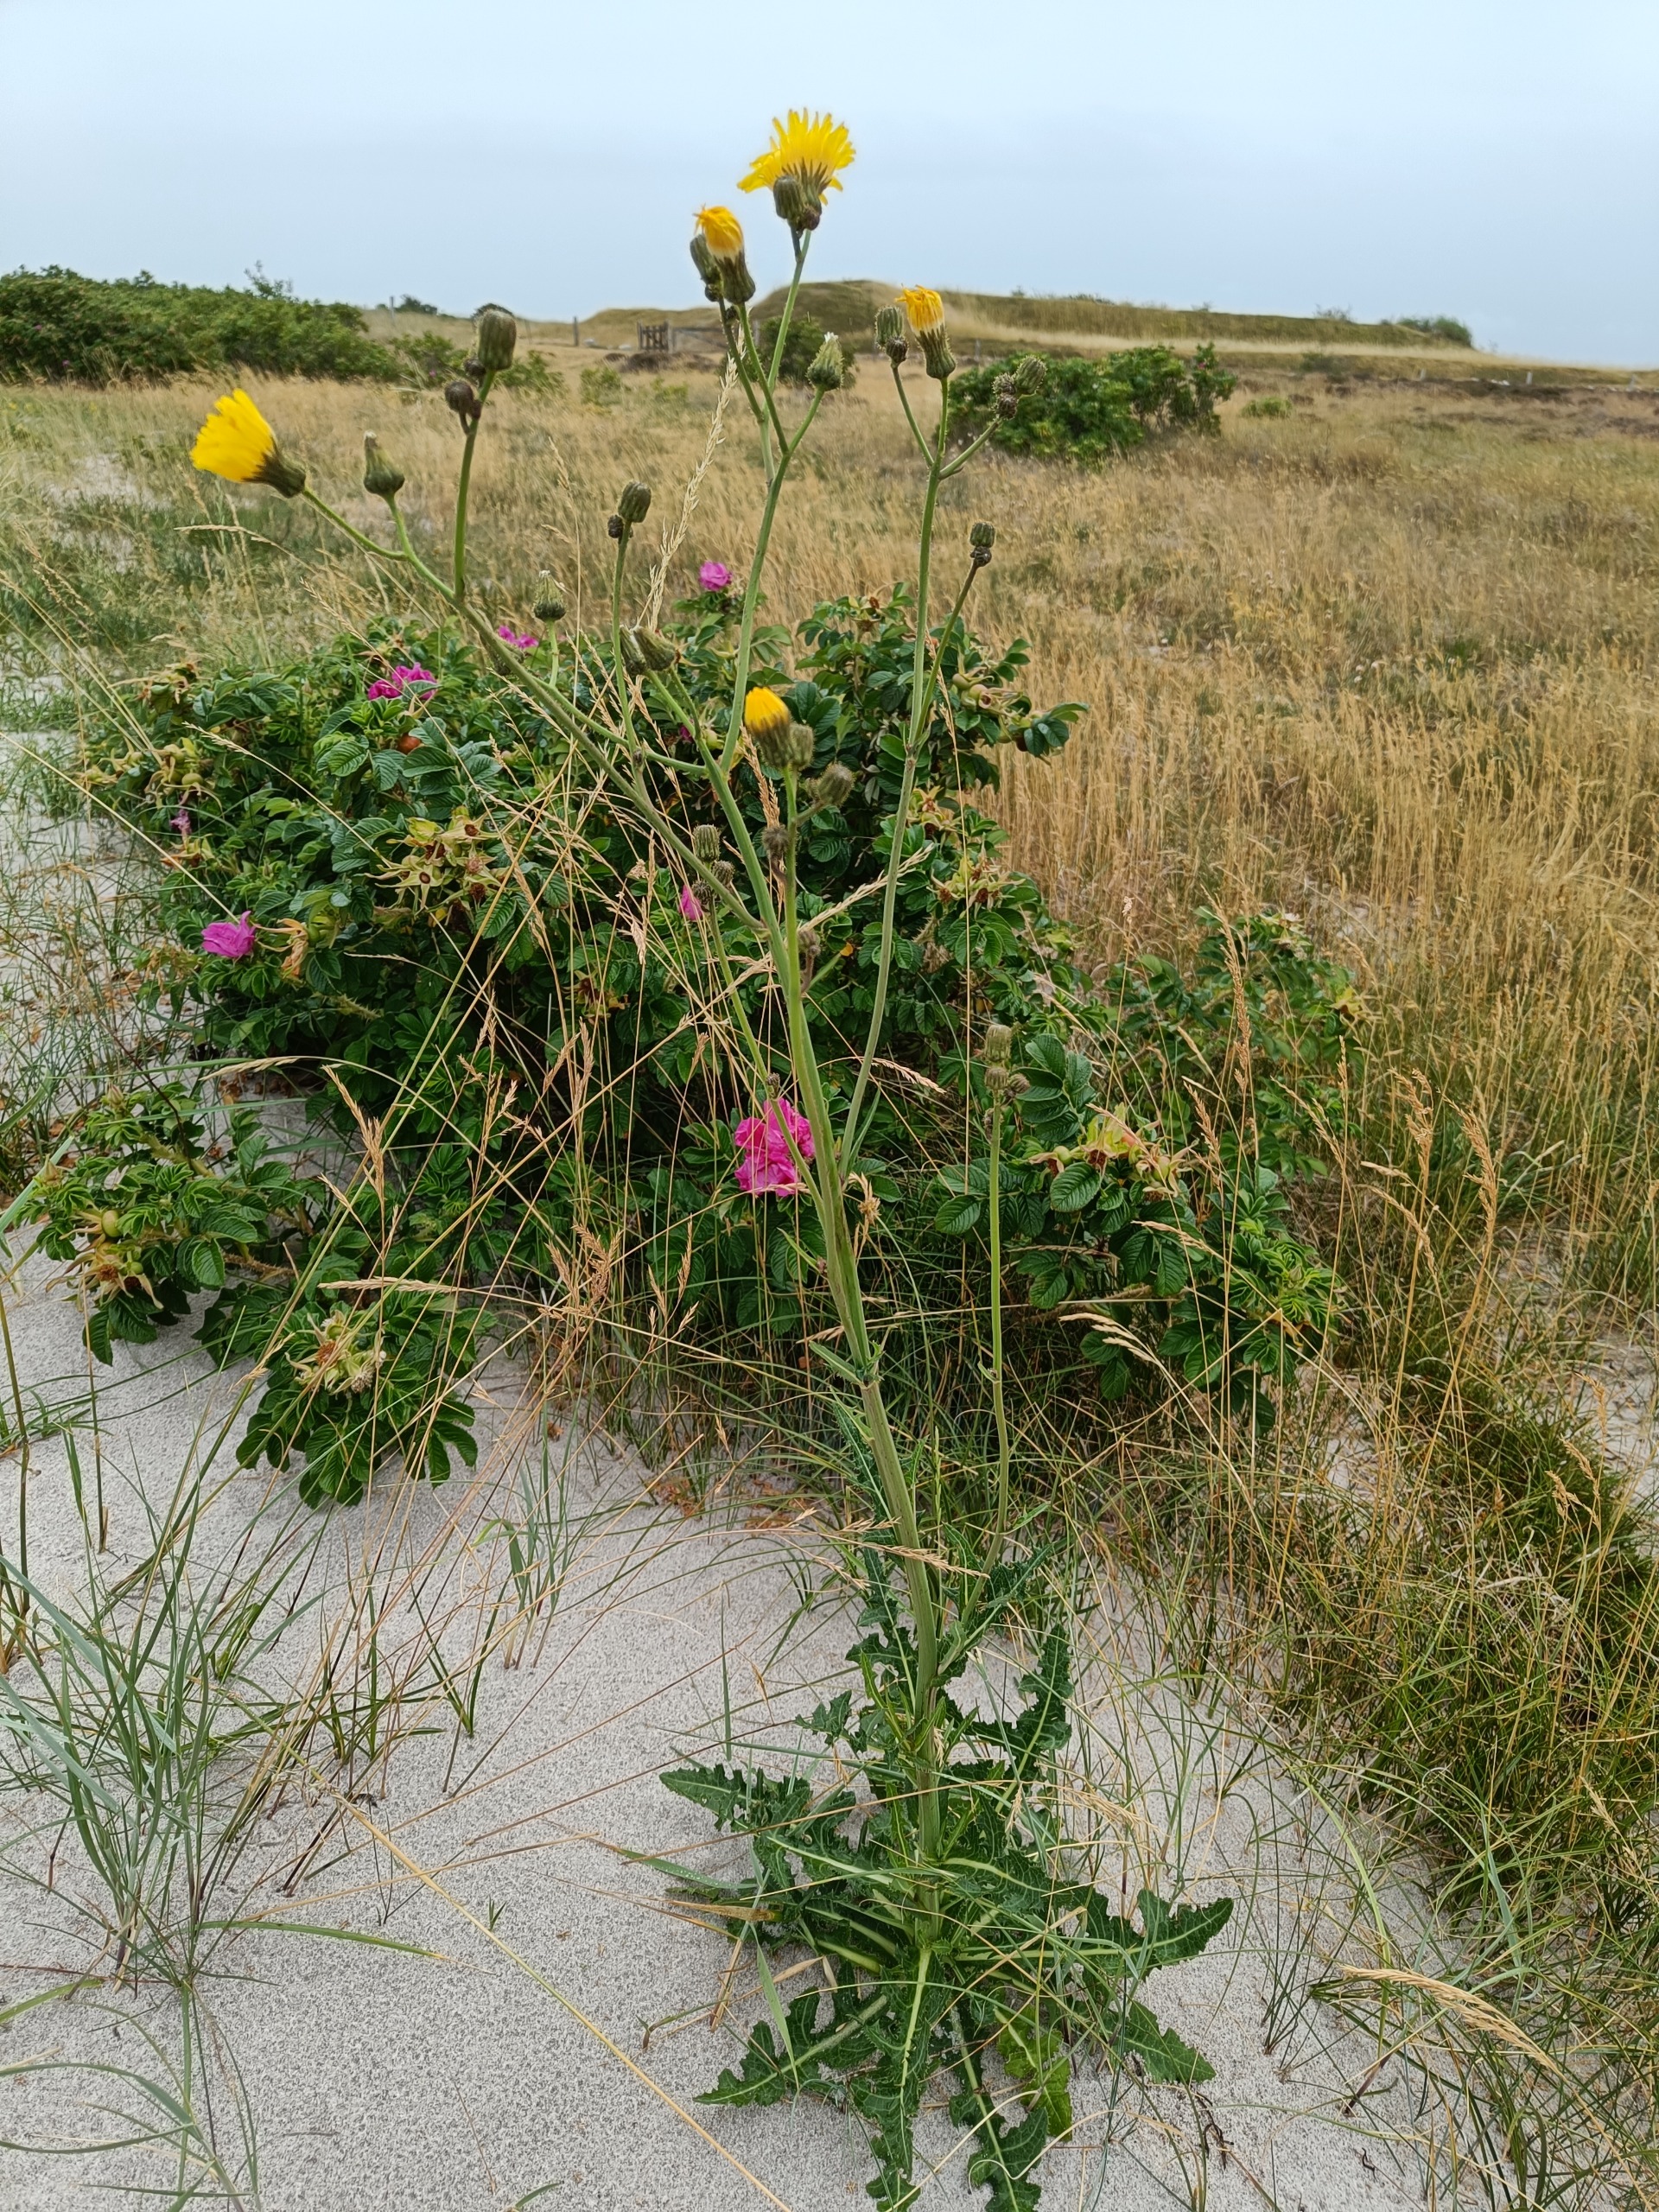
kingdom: Plantae
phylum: Tracheophyta
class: Magnoliopsida
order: Asterales
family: Asteraceae
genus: Sonchus
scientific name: Sonchus arvensis
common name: Ager-svinemælk
